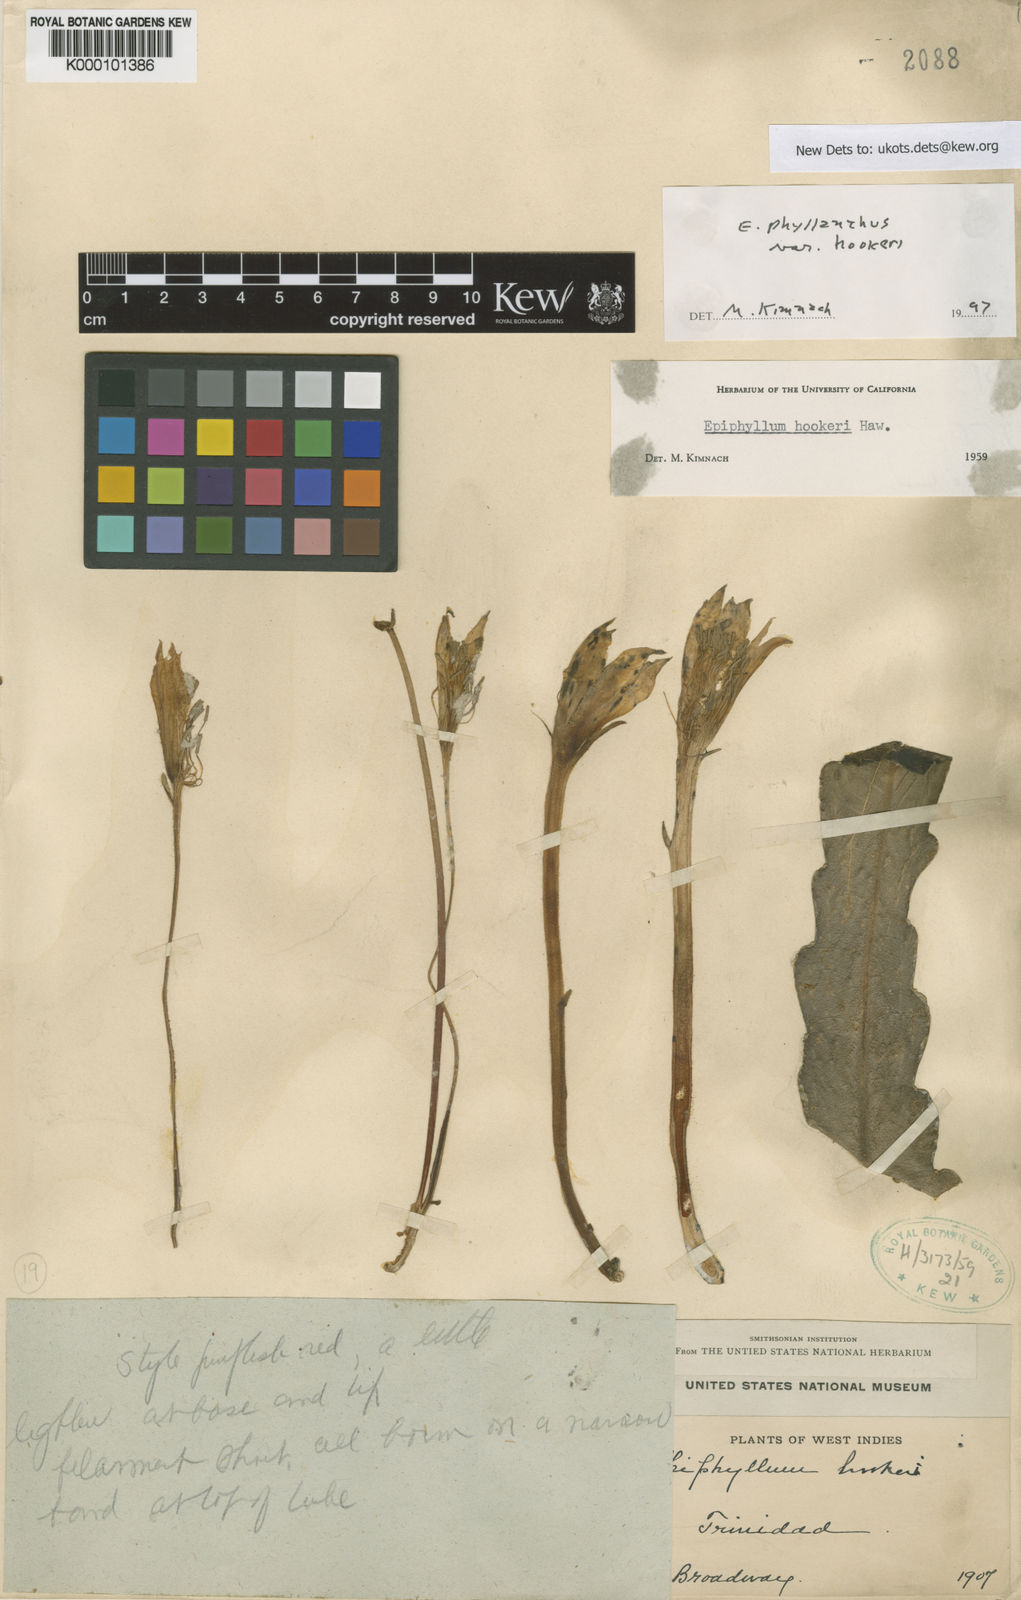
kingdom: Plantae
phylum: Tracheophyta
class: Magnoliopsida
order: Caryophyllales
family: Cactaceae
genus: Epiphyllum
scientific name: Epiphyllum phyllanthus
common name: Climbing cactus
